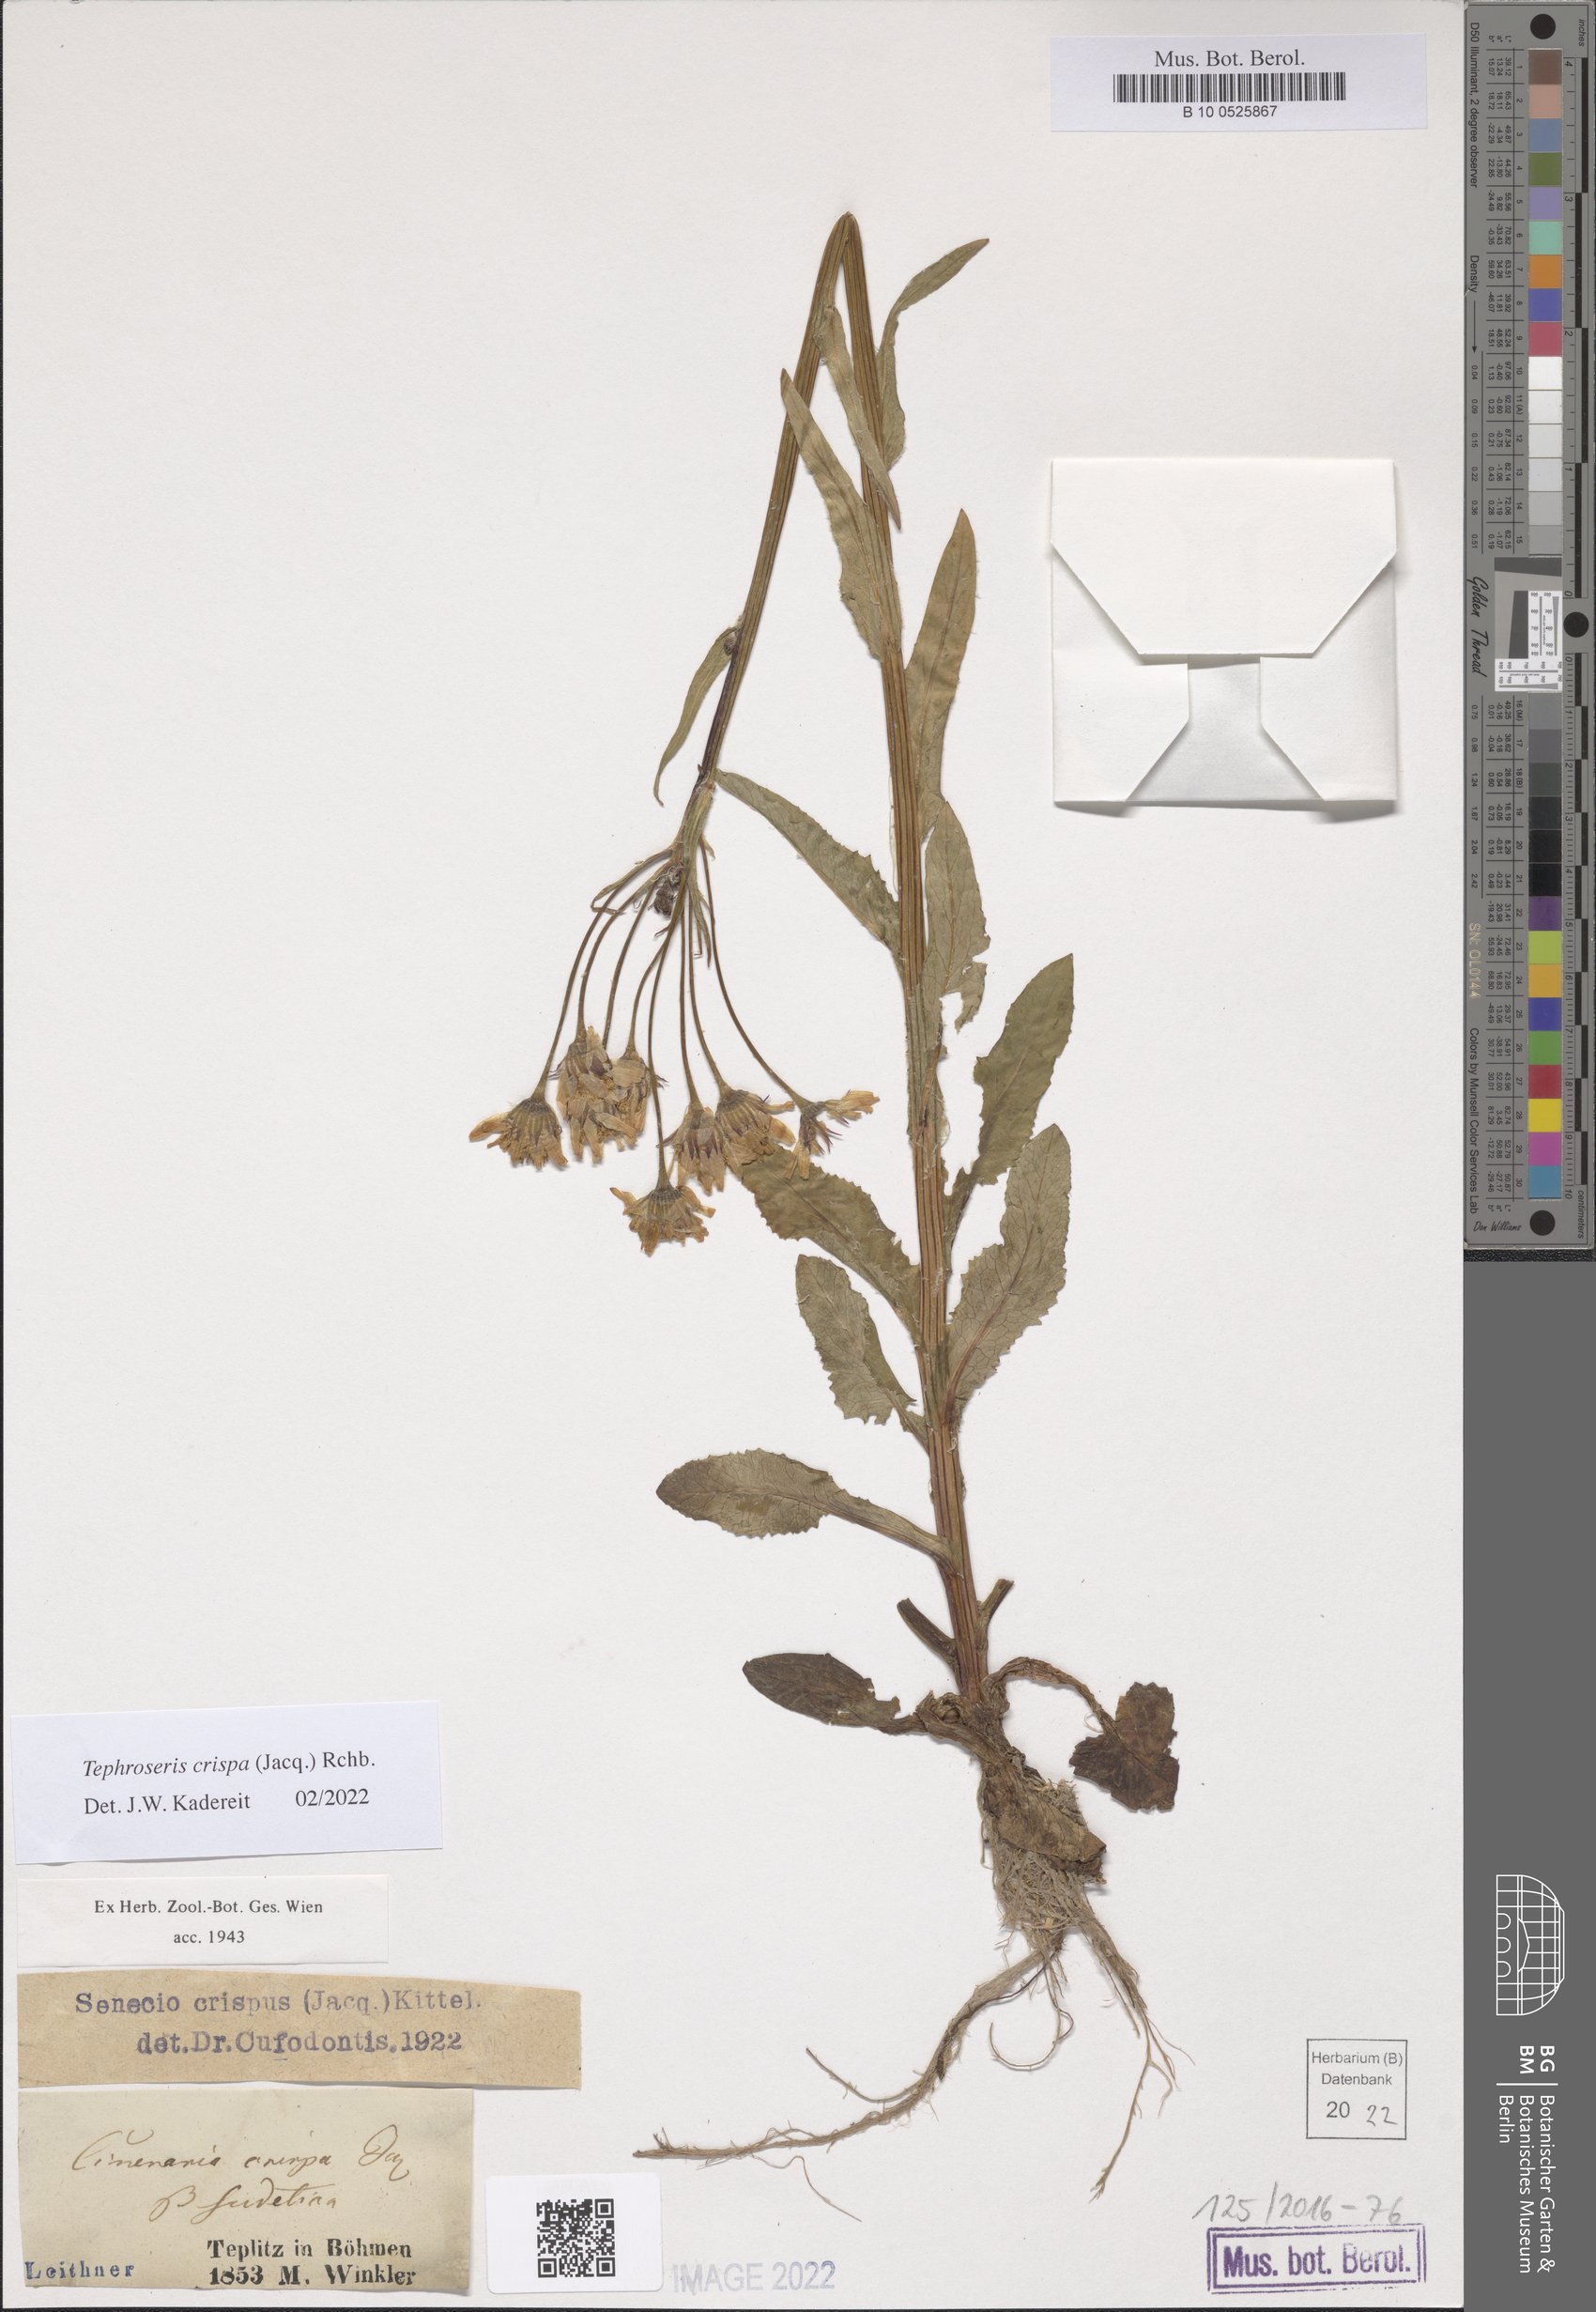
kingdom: Plantae
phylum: Tracheophyta
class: Magnoliopsida
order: Asterales
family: Asteraceae
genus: Tephroseris
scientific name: Tephroseris crispa
